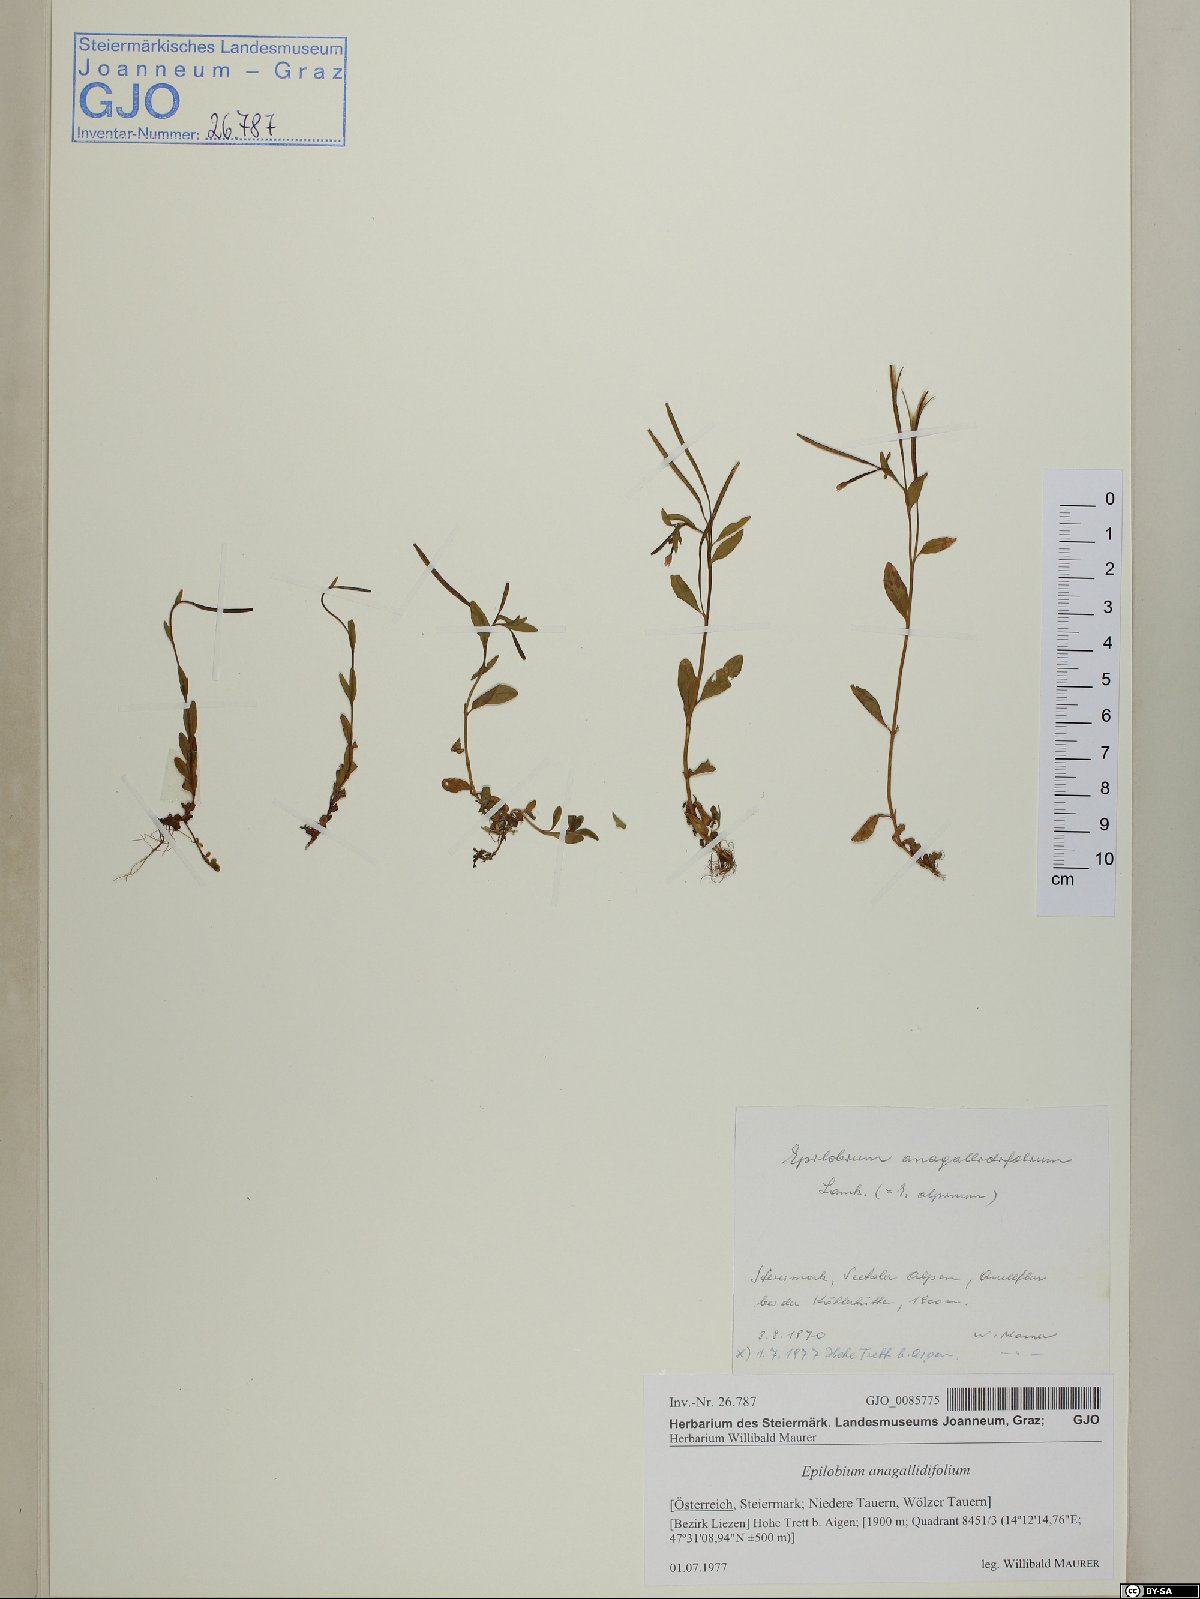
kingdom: Plantae
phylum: Tracheophyta
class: Magnoliopsida
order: Myrtales
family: Onagraceae
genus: Epilobium
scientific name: Epilobium anagallidifolium
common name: Alpine willowherb
